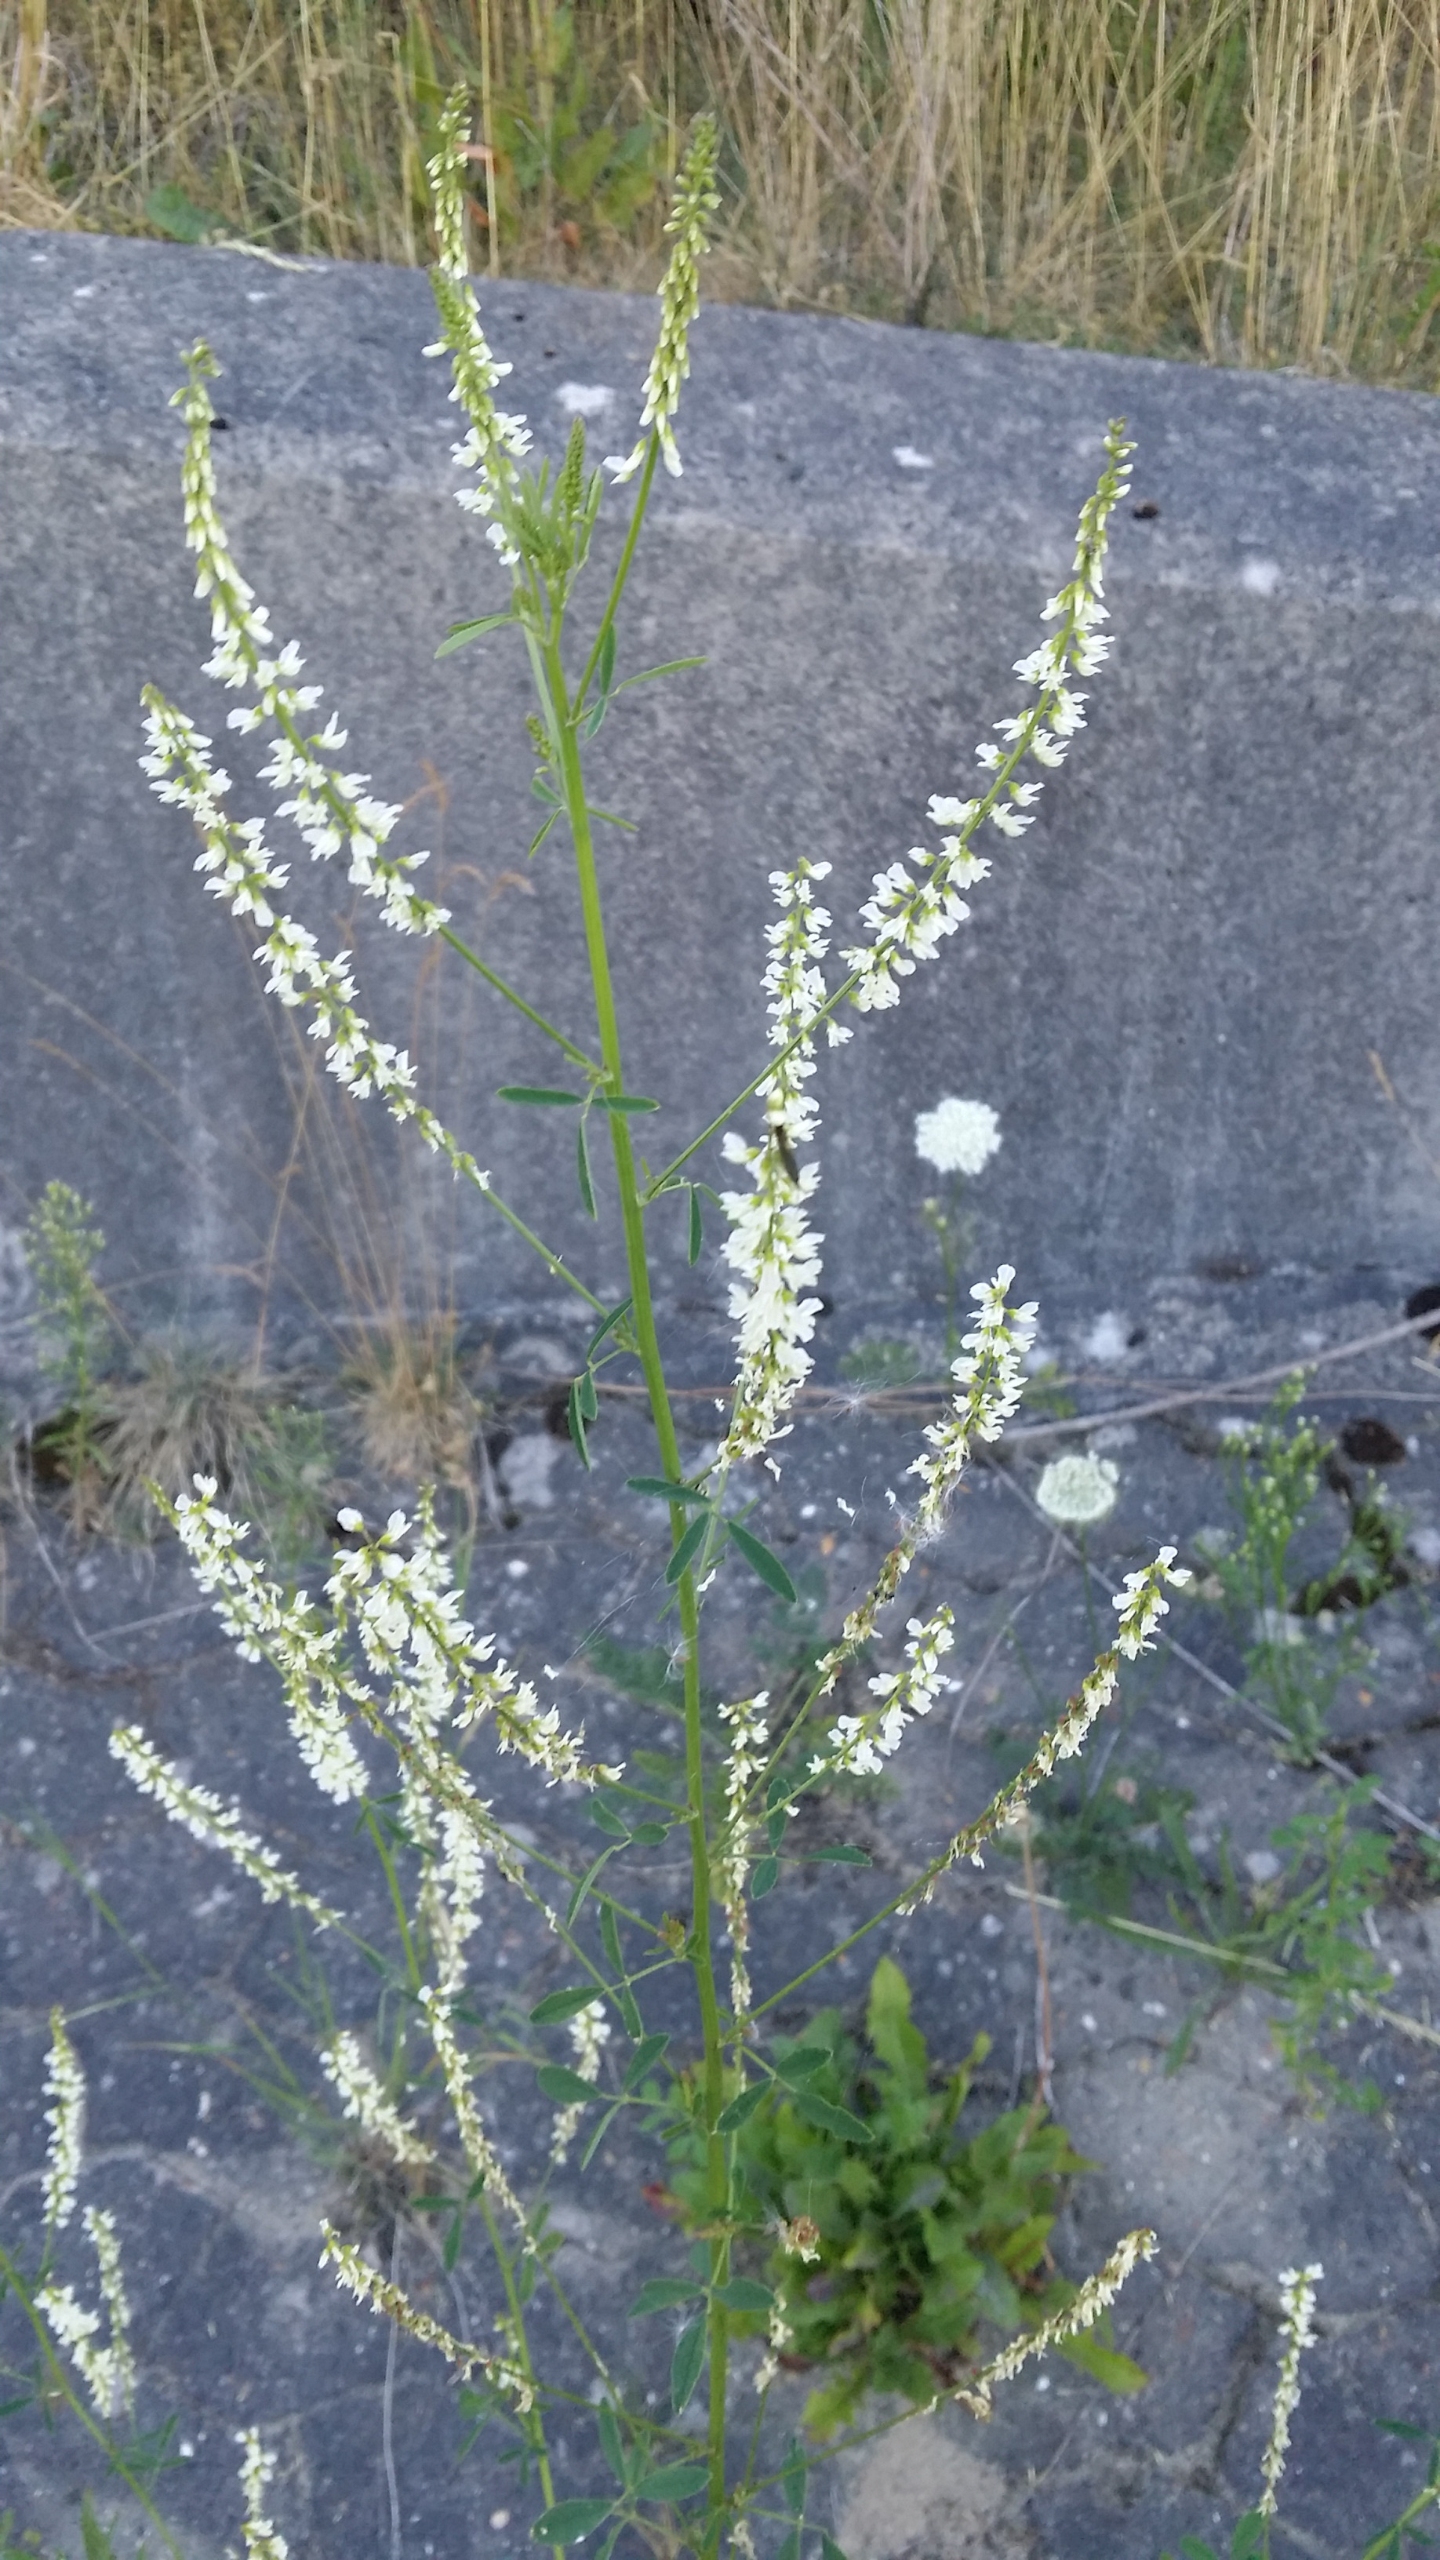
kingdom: Plantae
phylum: Tracheophyta
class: Magnoliopsida
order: Fabales
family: Fabaceae
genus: Melilotus
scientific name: Melilotus albus
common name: Hvid stenkløver
